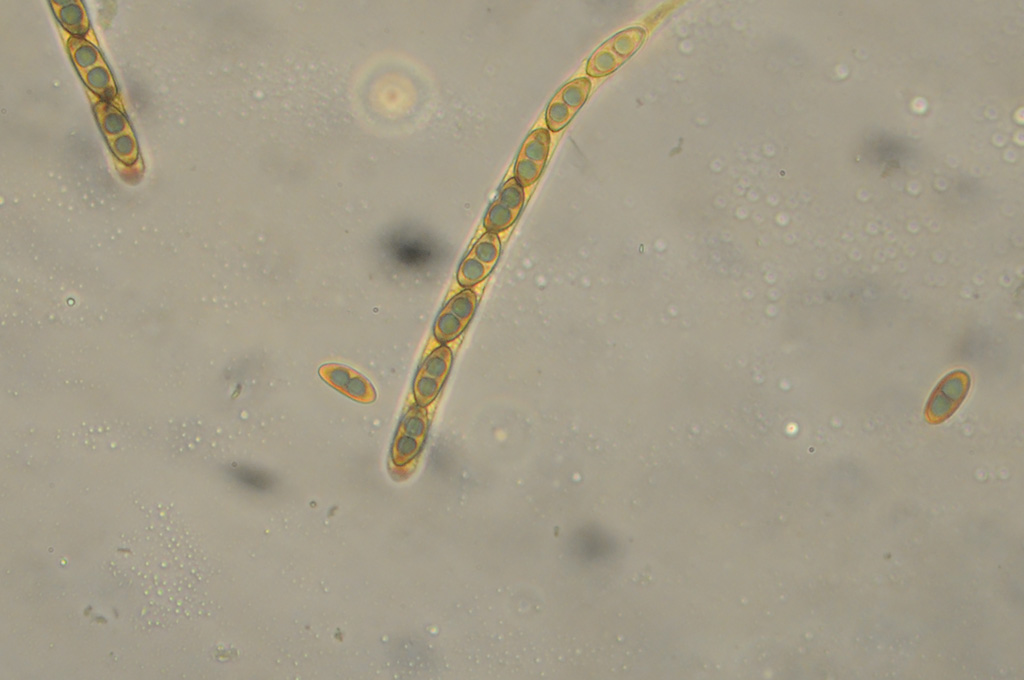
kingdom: Fungi
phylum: Ascomycota
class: Sordariomycetes
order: Xylariales
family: Xylariaceae
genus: Nemania
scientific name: Nemania serpens
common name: almindelig kuldyne
